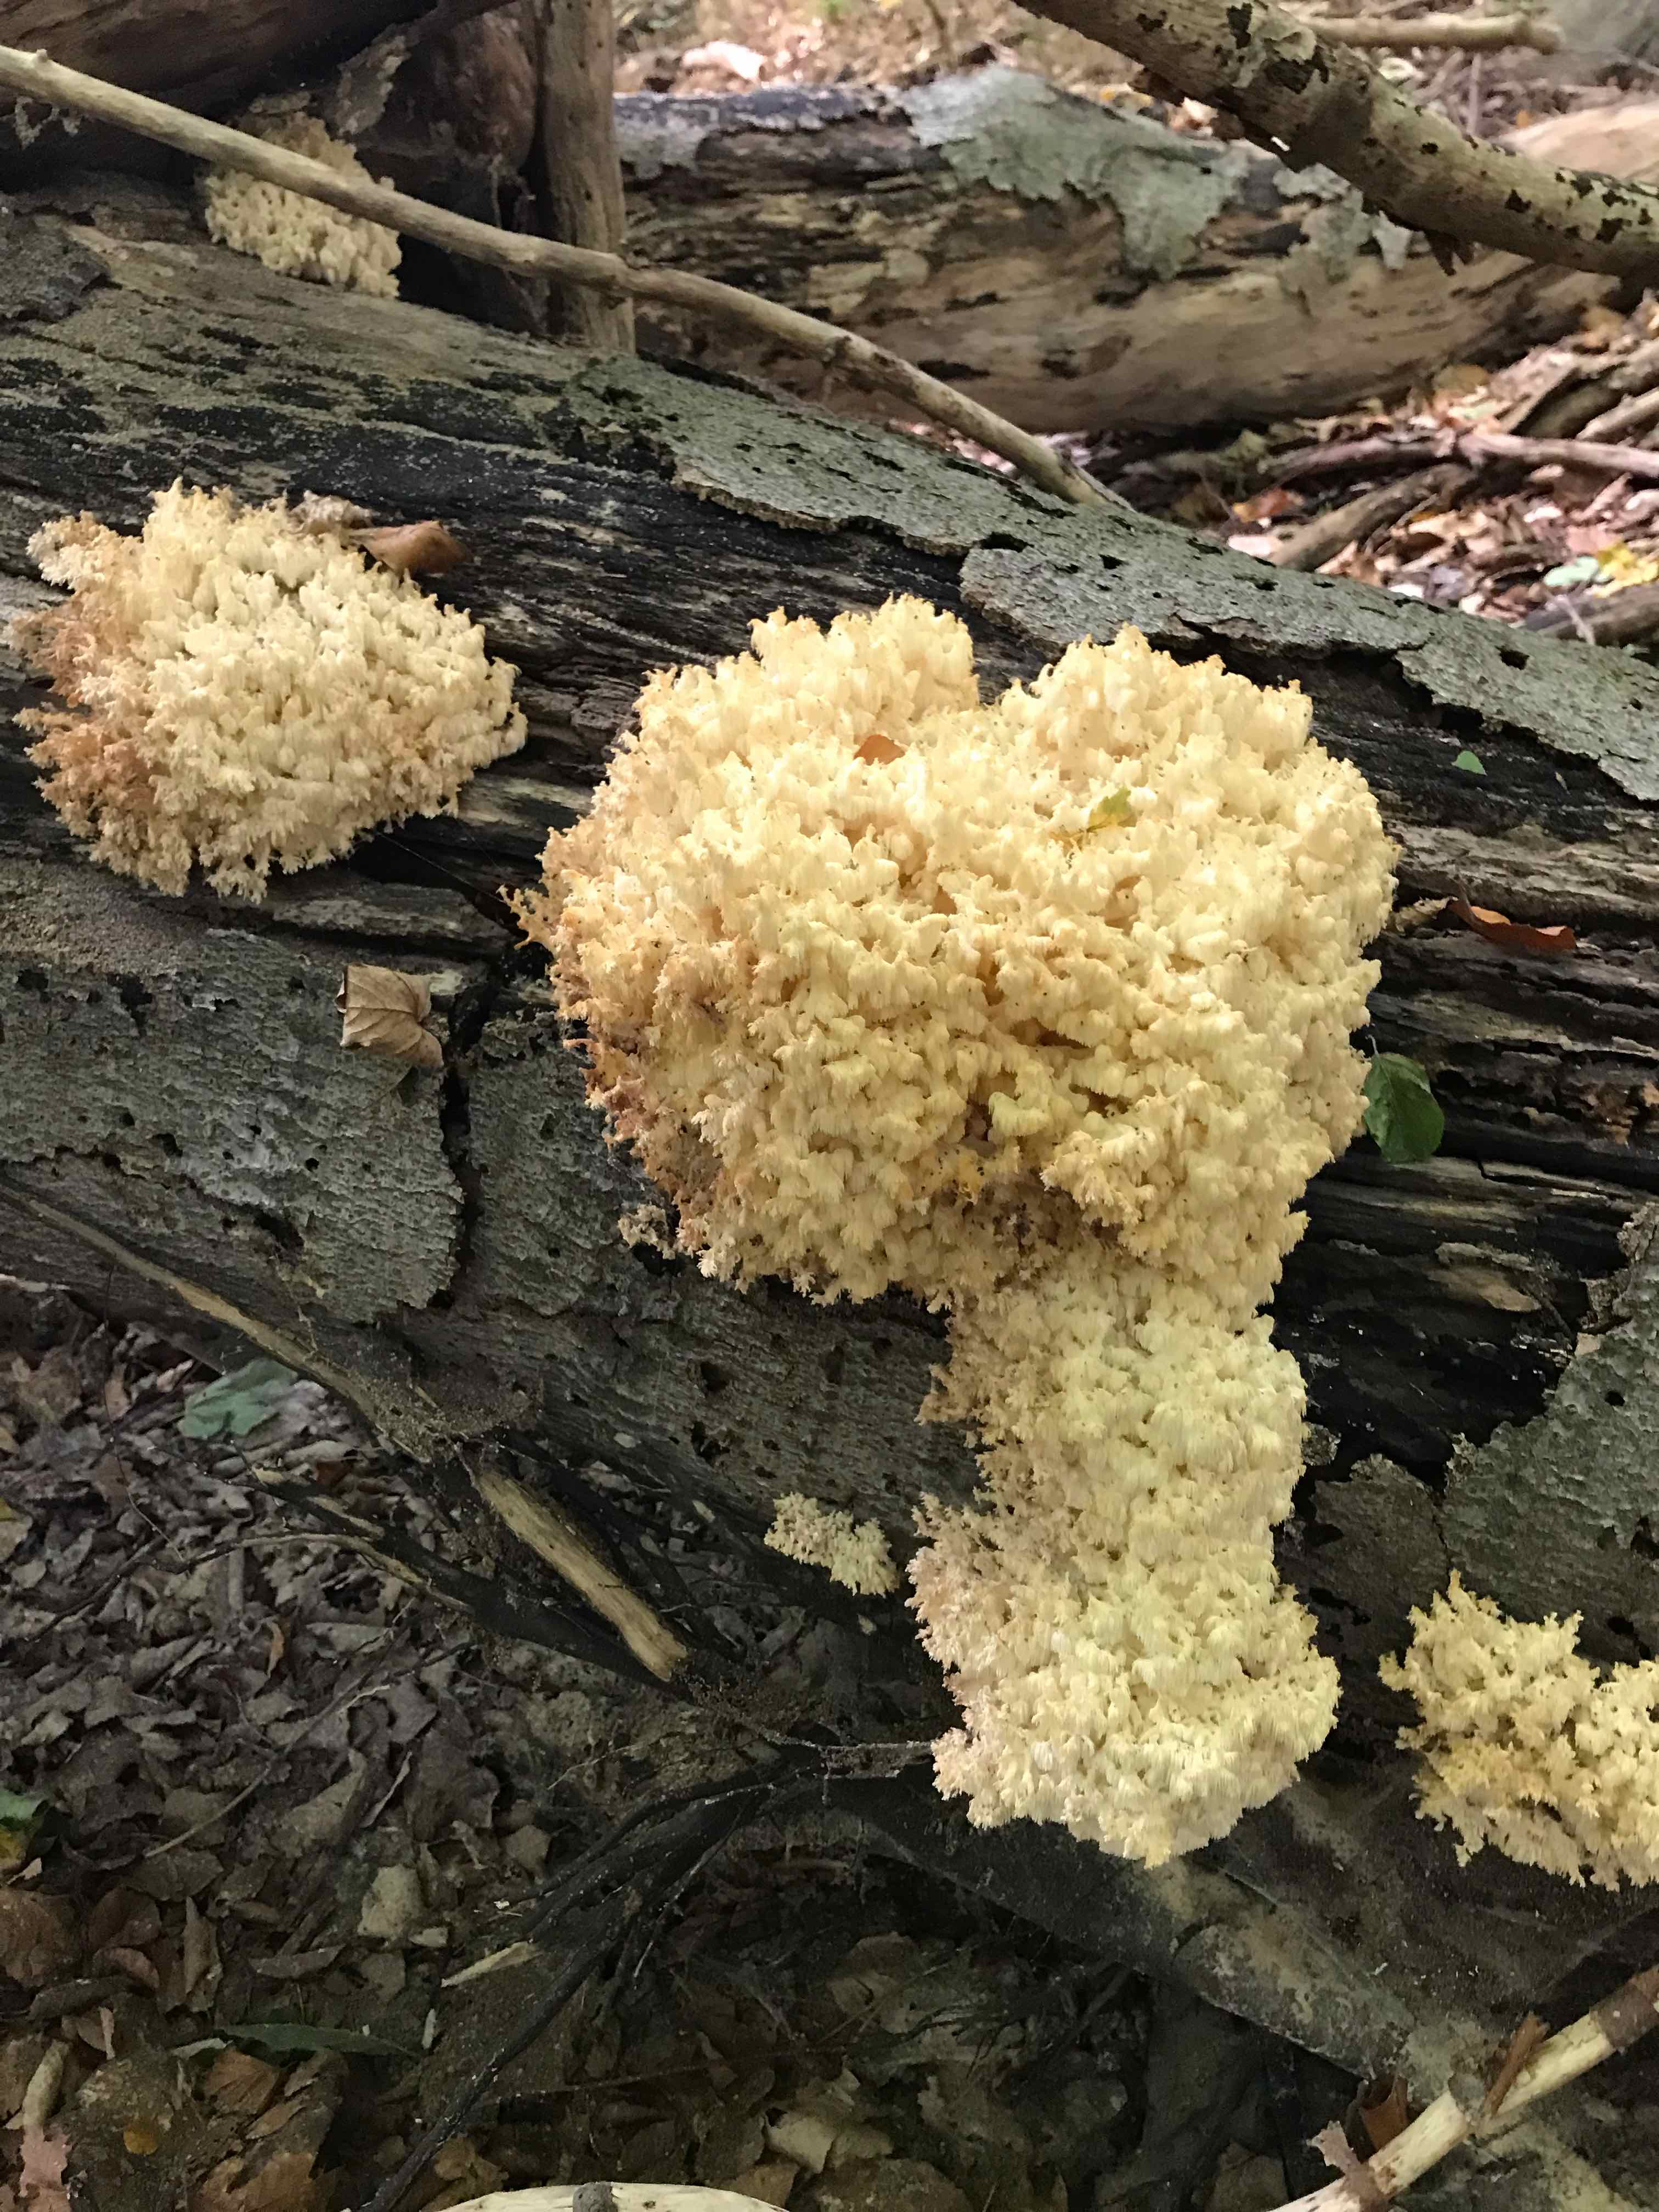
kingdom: Fungi
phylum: Basidiomycota
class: Agaricomycetes
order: Russulales
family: Hericiaceae
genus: Hericium
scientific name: Hericium coralloides
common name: koralpigsvamp
